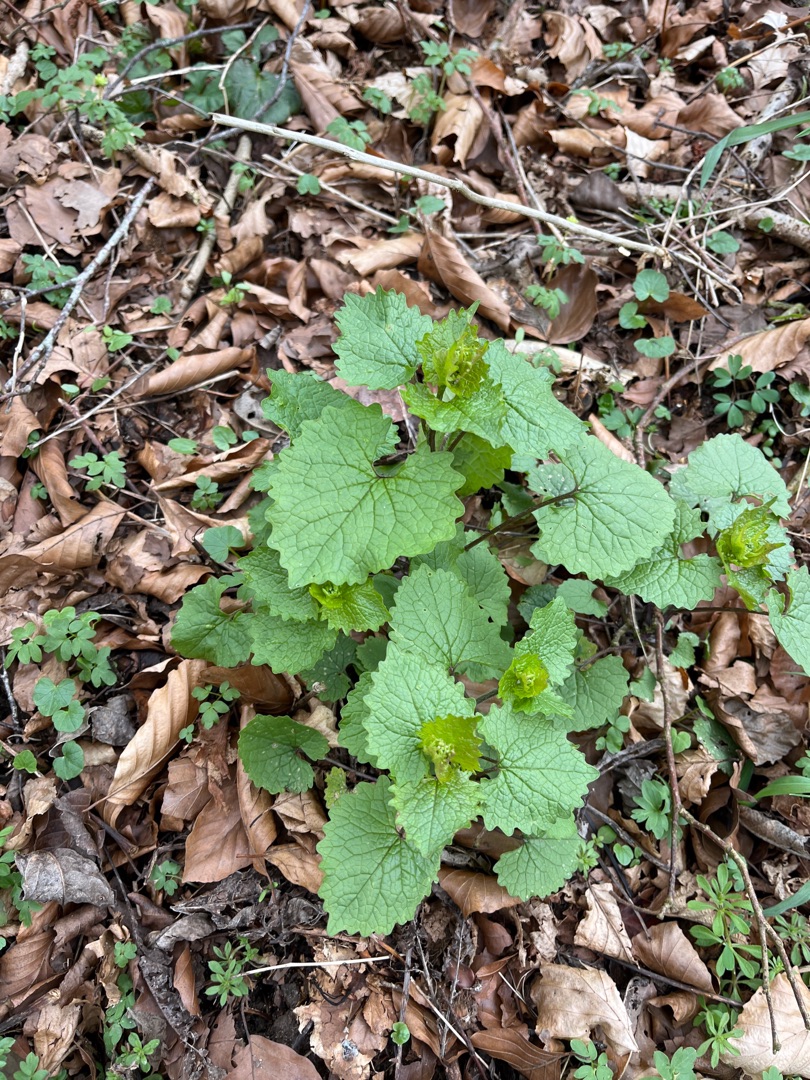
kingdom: Plantae
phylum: Tracheophyta
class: Magnoliopsida
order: Brassicales
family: Brassicaceae
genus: Alliaria
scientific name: Alliaria petiolata
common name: Løgkarse
